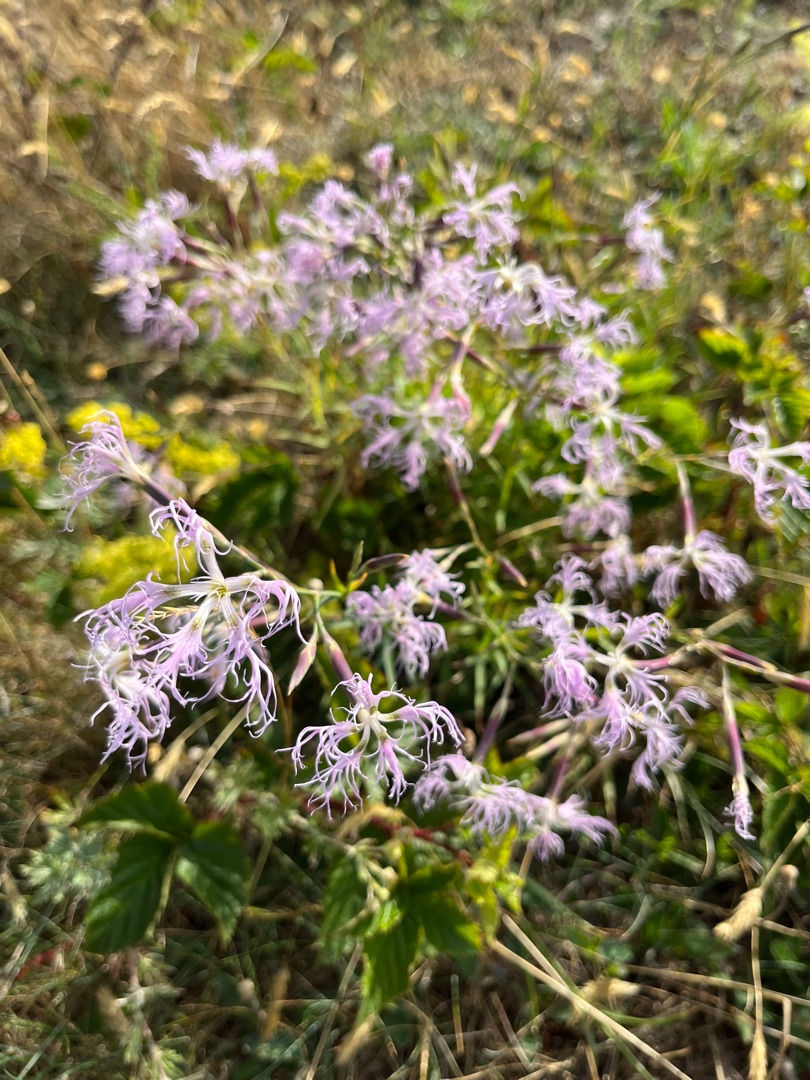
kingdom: Plantae
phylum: Tracheophyta
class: Magnoliopsida
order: Caryophyllales
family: Caryophyllaceae
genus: Dianthus
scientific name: Dianthus superbus
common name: Strand-nellike
